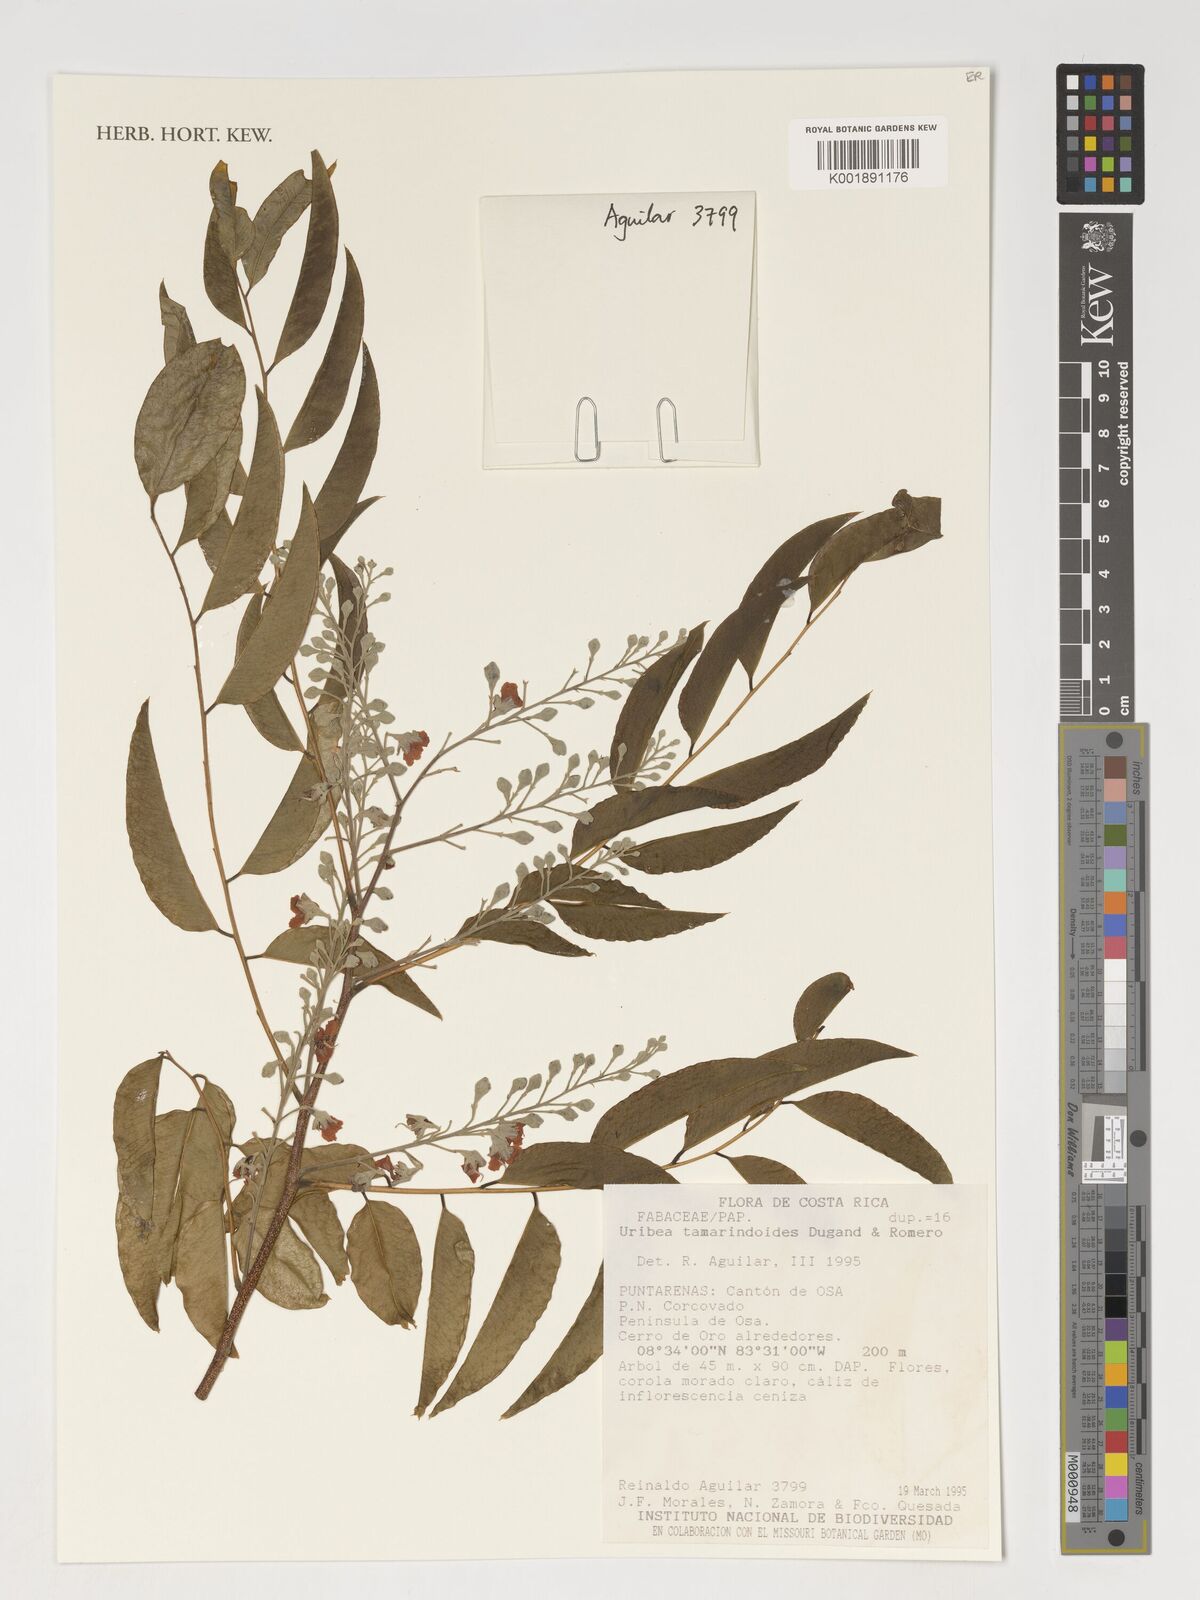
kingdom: Plantae
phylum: Tracheophyta
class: Magnoliopsida
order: Fabales
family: Fabaceae
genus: Uribea
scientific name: Uribea tamarindoides
